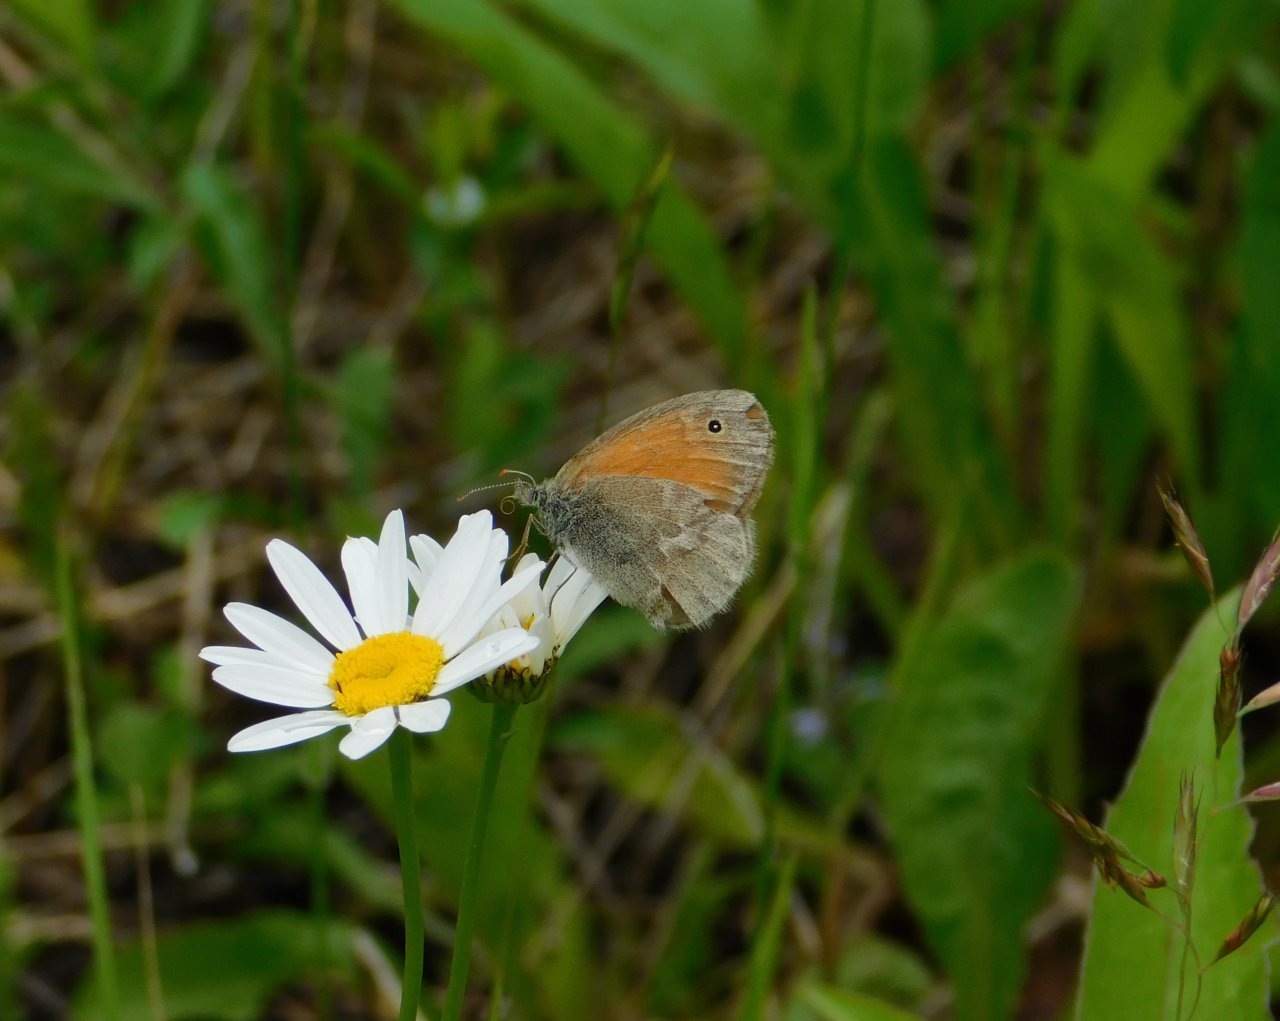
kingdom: Animalia
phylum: Arthropoda
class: Insecta
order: Lepidoptera
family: Nymphalidae
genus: Coenonympha
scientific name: Coenonympha tullia
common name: Large Heath
